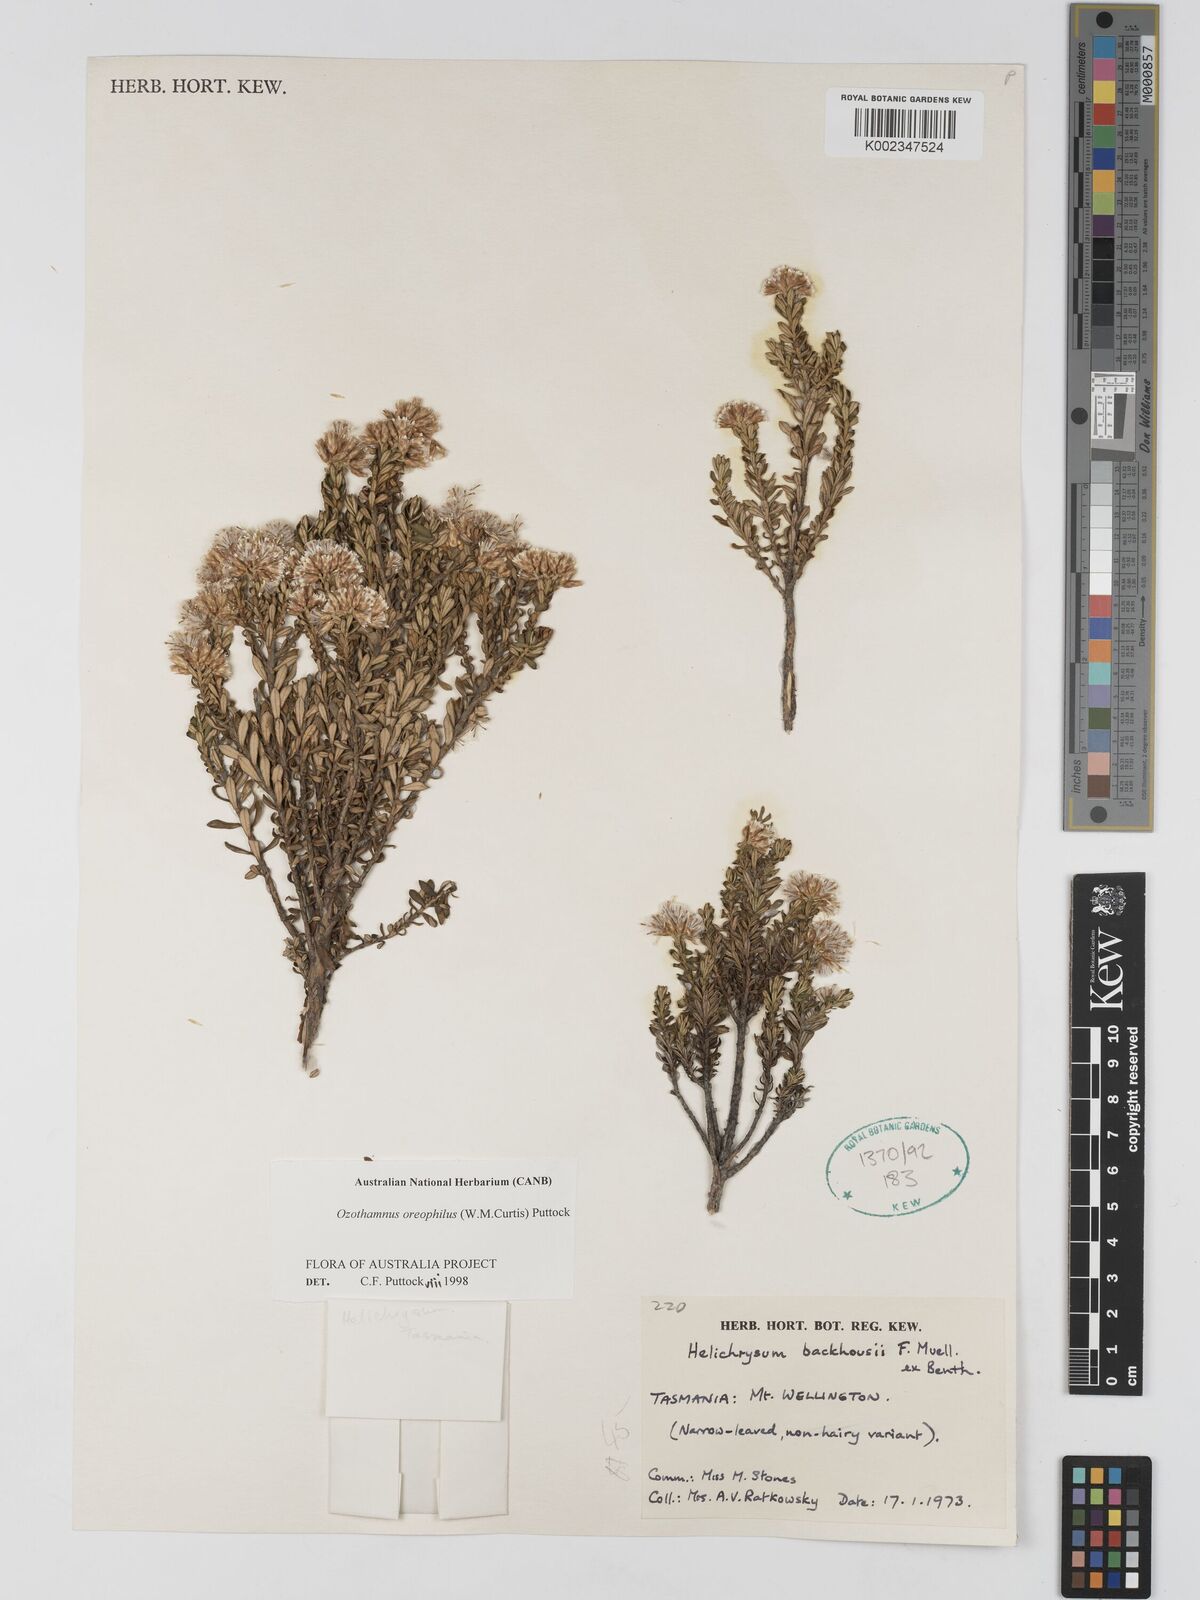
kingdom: Plantae
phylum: Tracheophyta
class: Magnoliopsida
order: Asterales
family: Asteraceae
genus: Ozothamnus
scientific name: Ozothamnus
